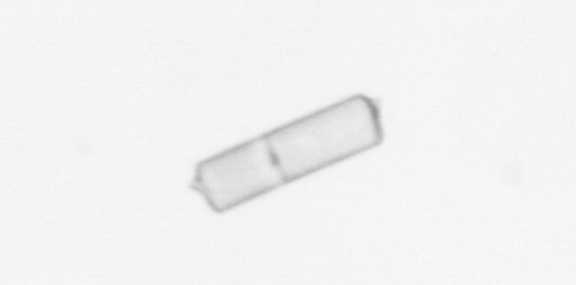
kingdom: Chromista
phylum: Ochrophyta
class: Bacillariophyceae
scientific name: Bacillariophyceae
